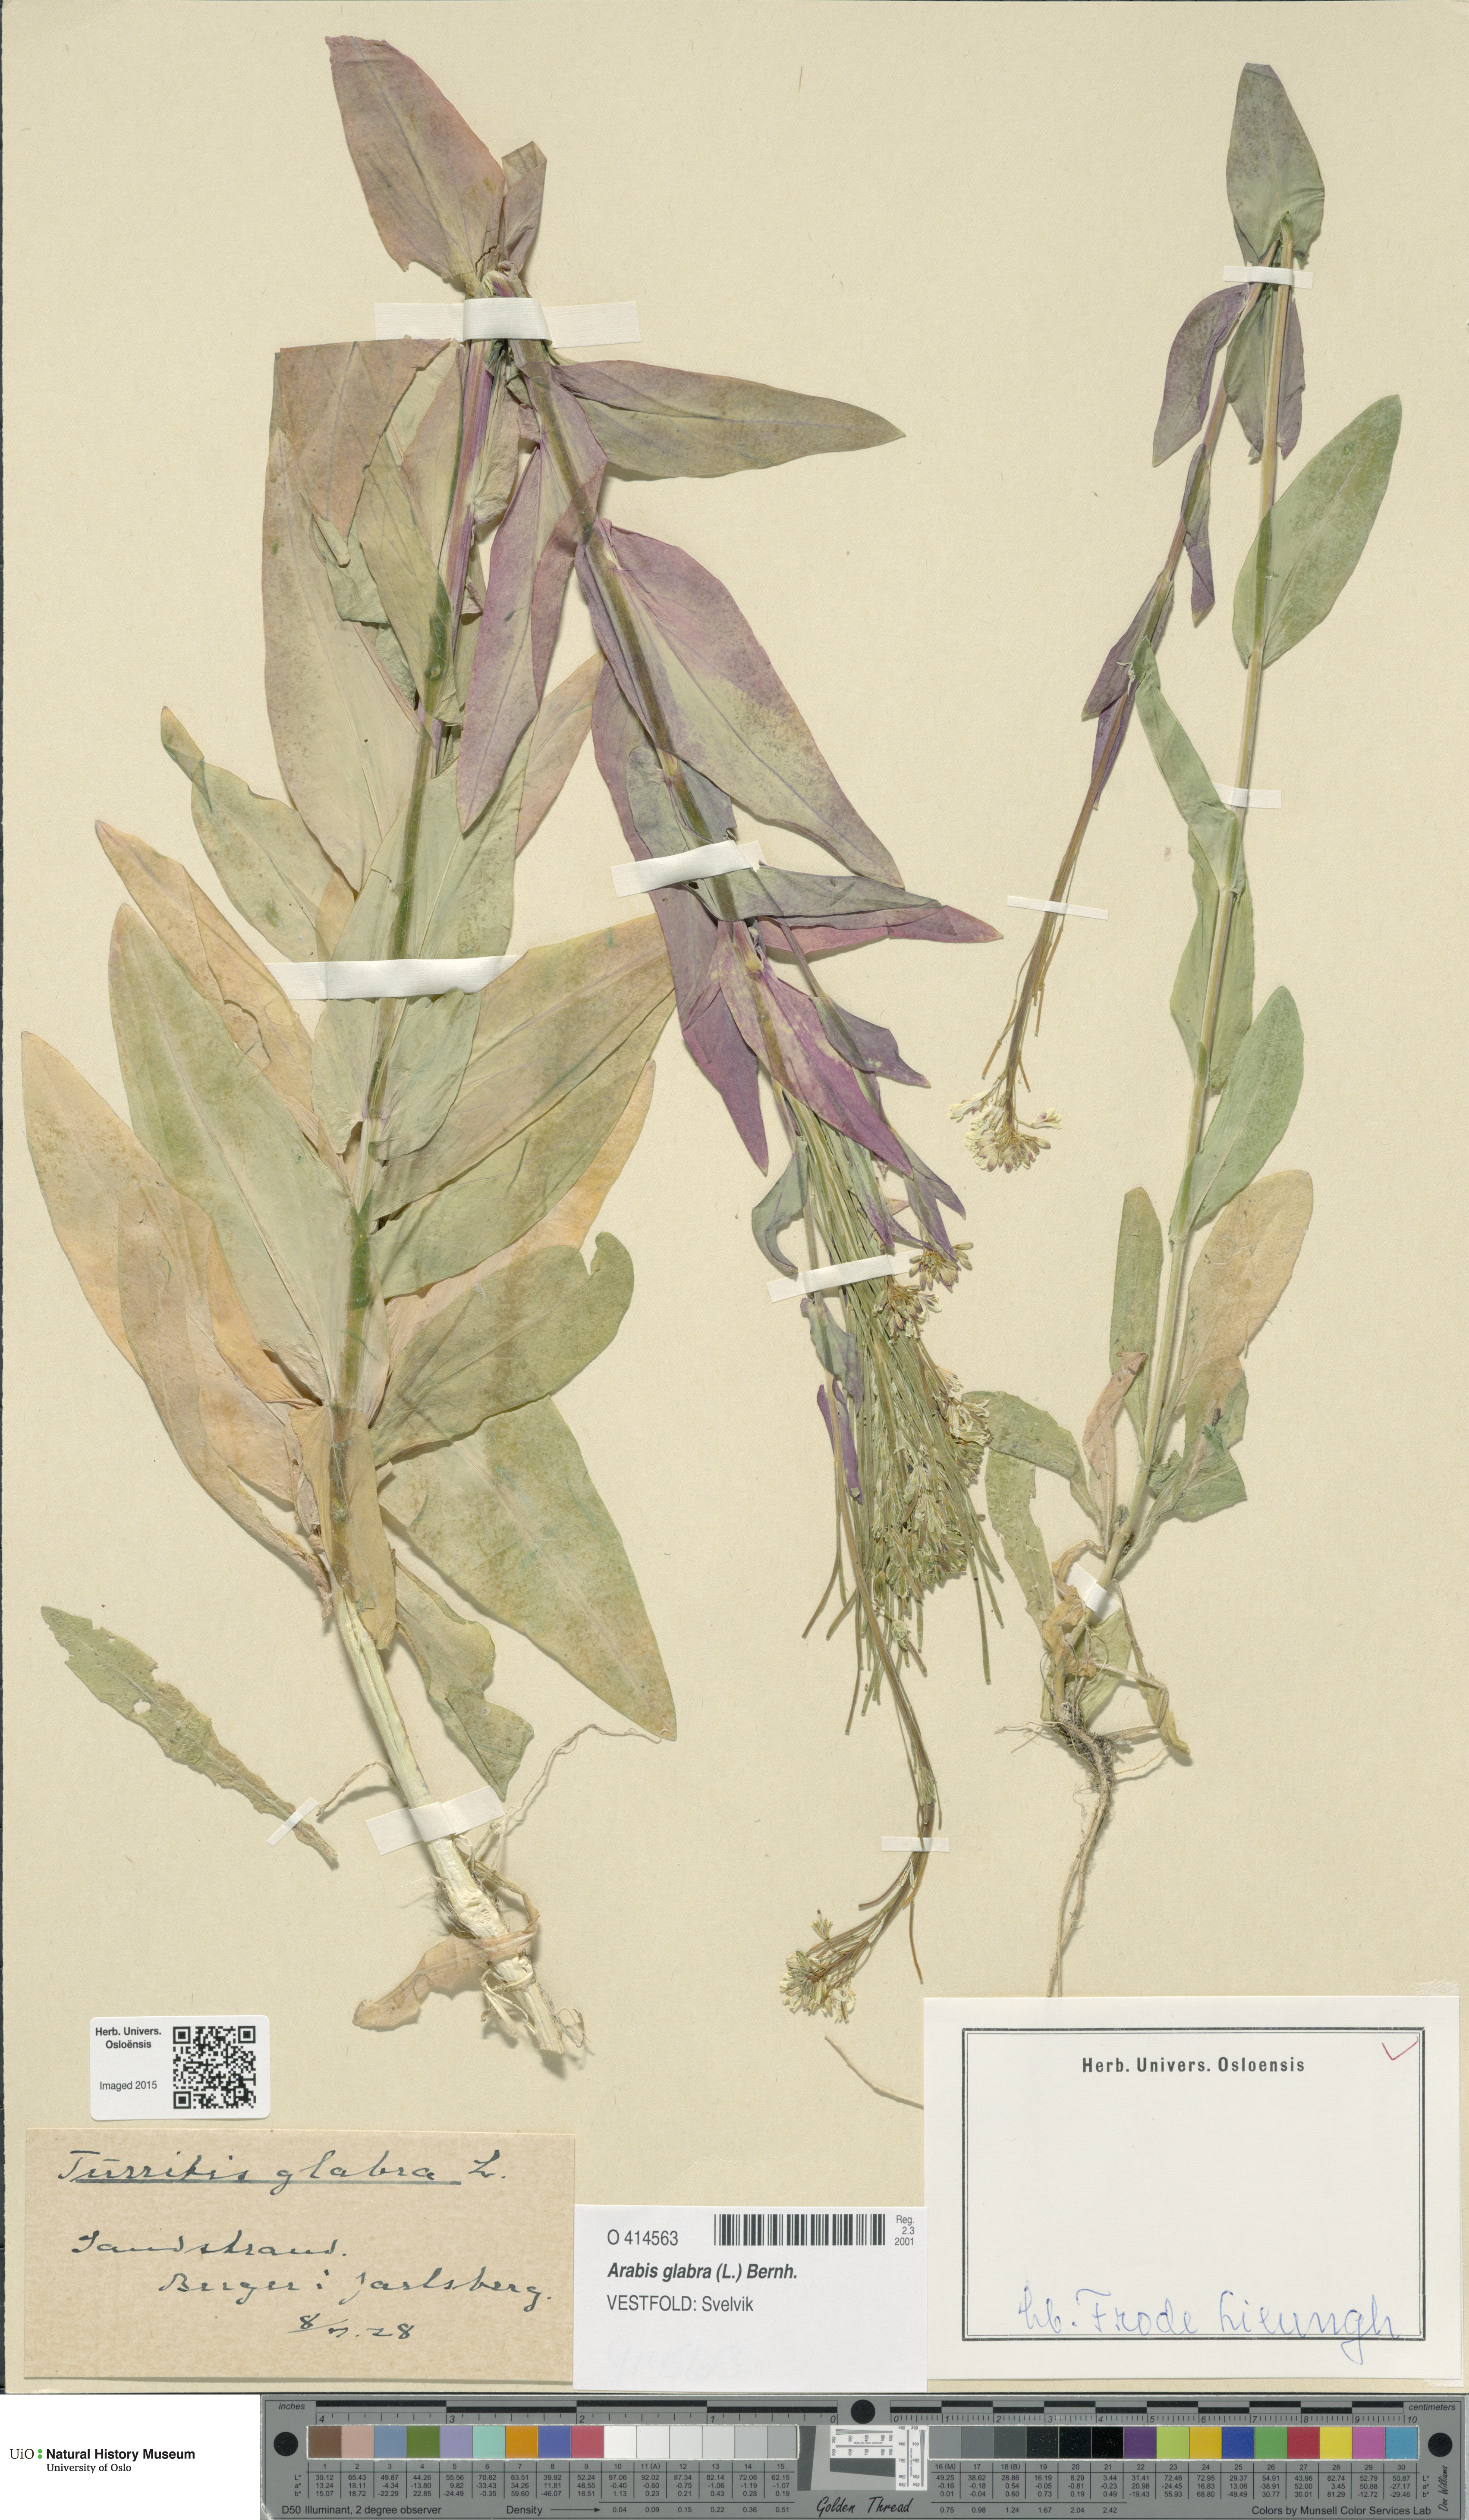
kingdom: Plantae
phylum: Tracheophyta
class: Magnoliopsida
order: Brassicales
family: Brassicaceae
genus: Turritis
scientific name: Turritis glabra
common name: Tower rockcress
